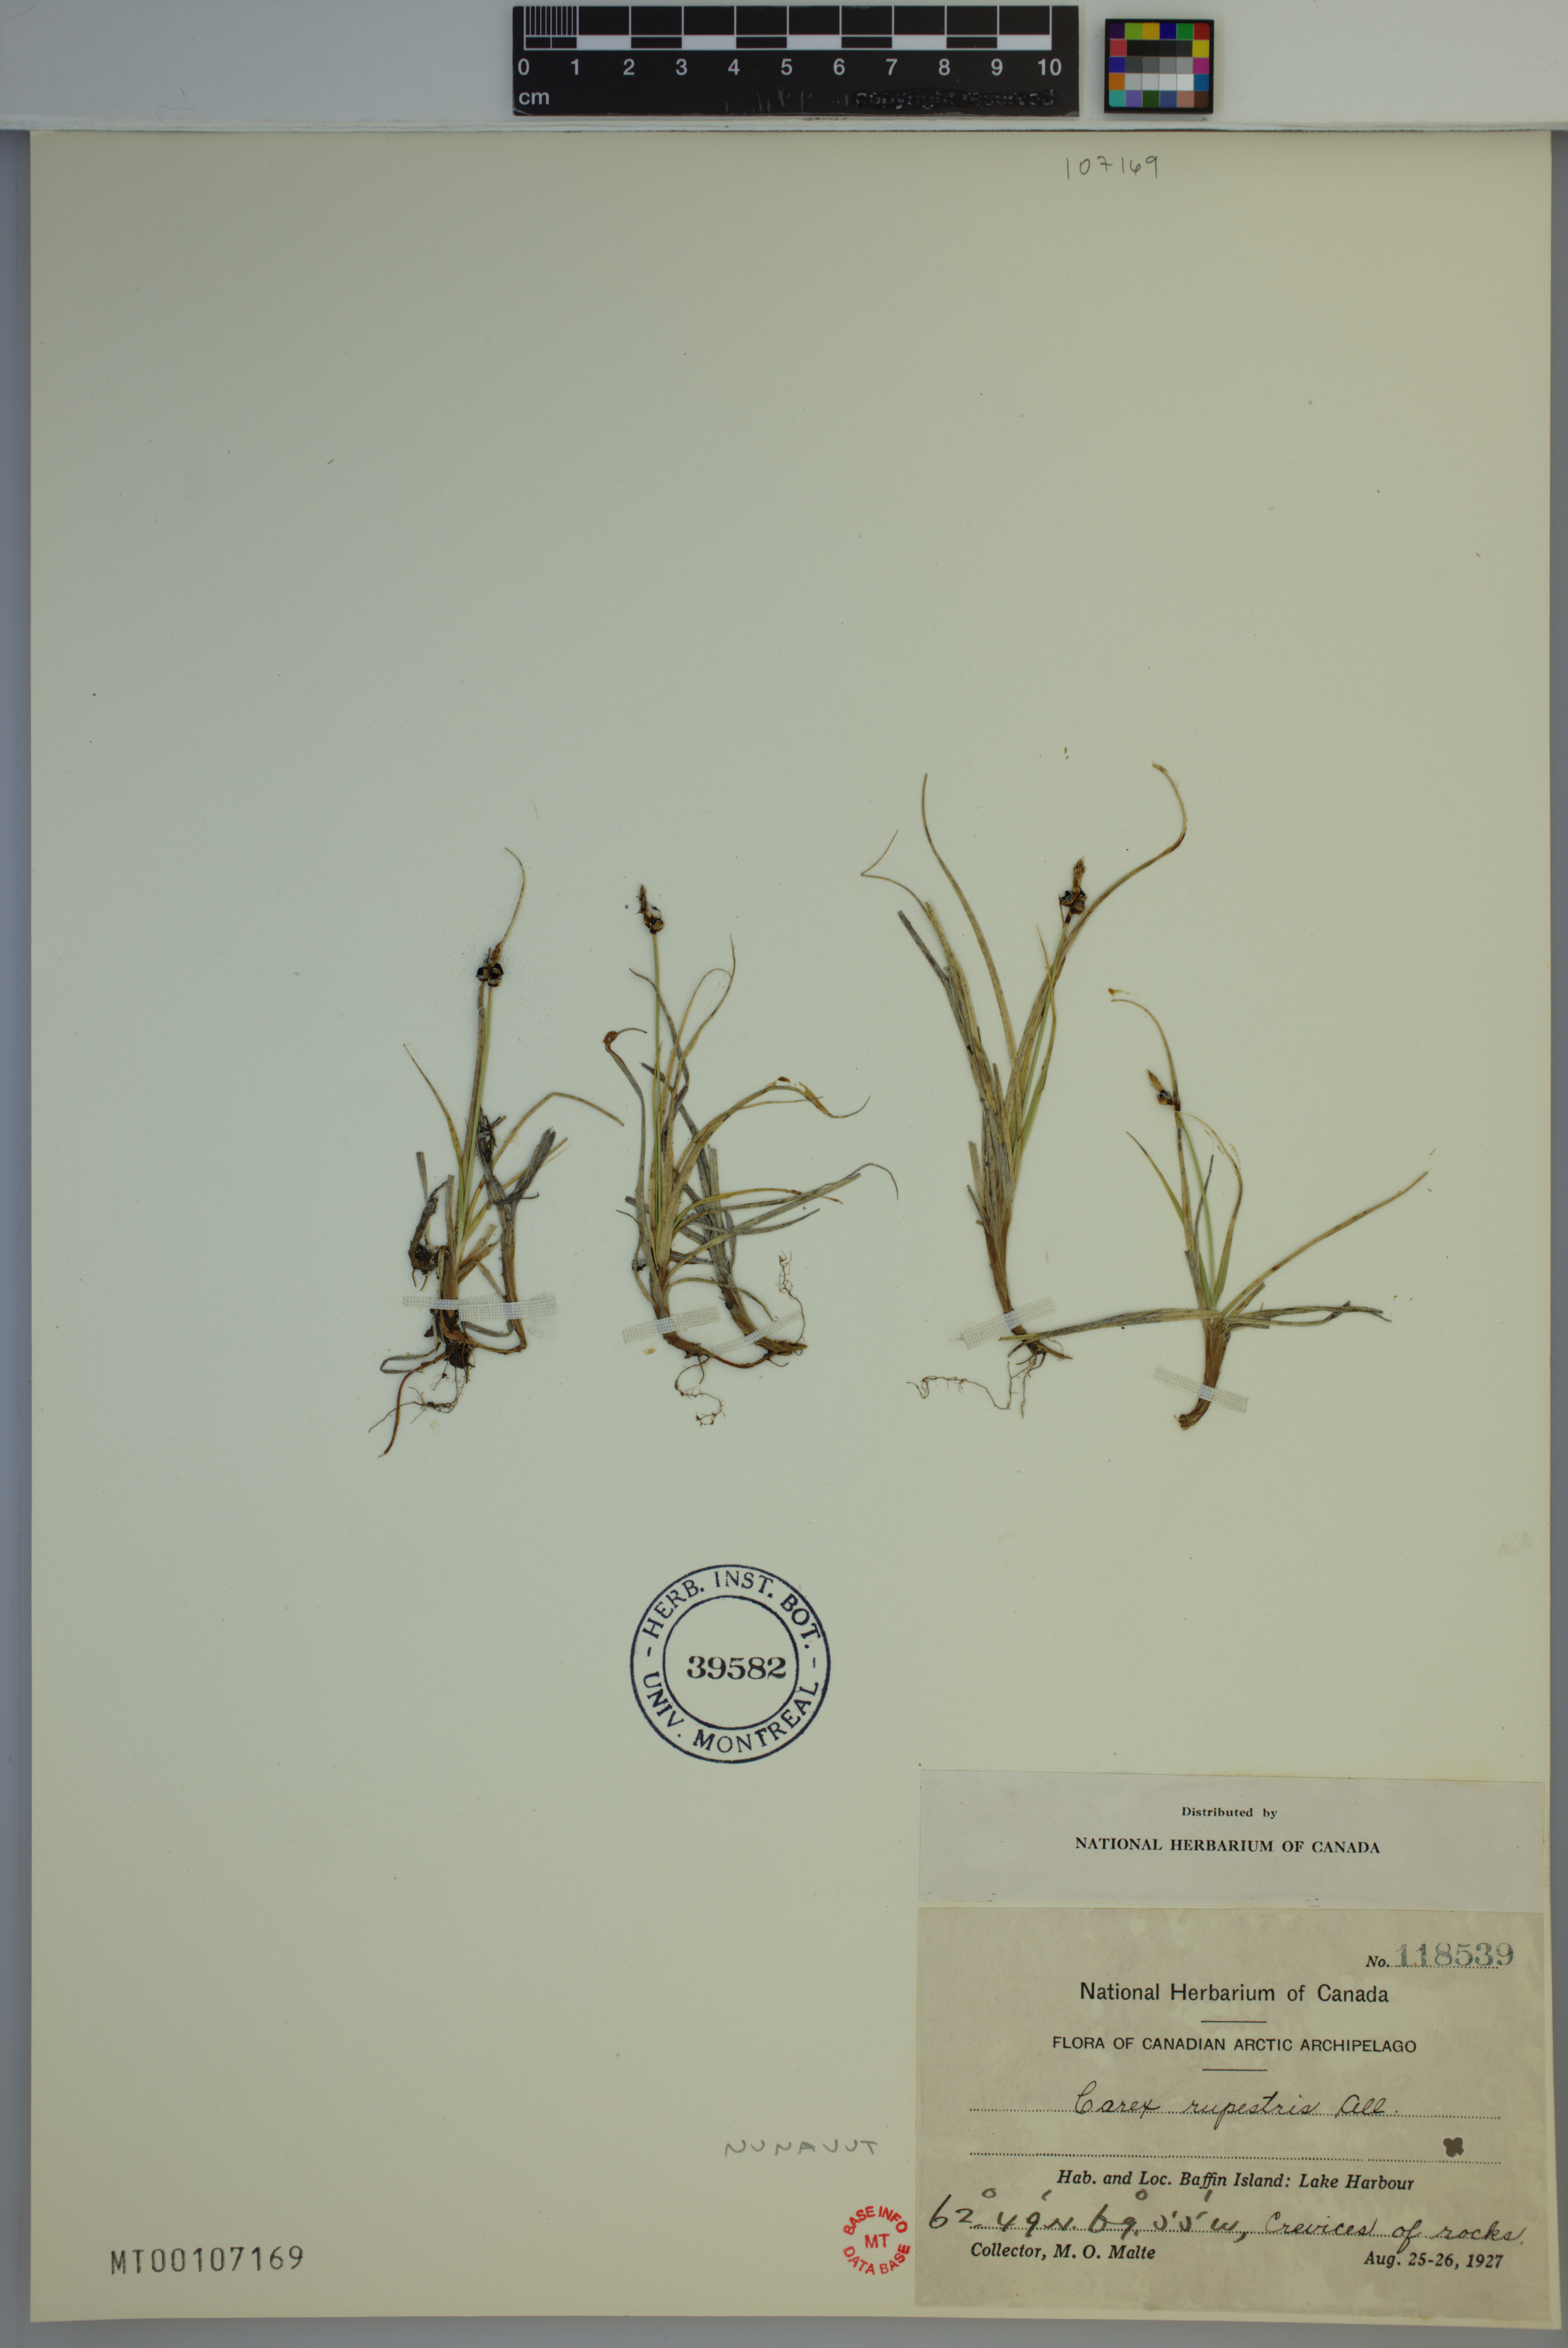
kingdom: Plantae
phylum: Tracheophyta
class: Liliopsida
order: Poales
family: Cyperaceae
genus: Carex
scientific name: Carex rupestris
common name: Rock sedge
